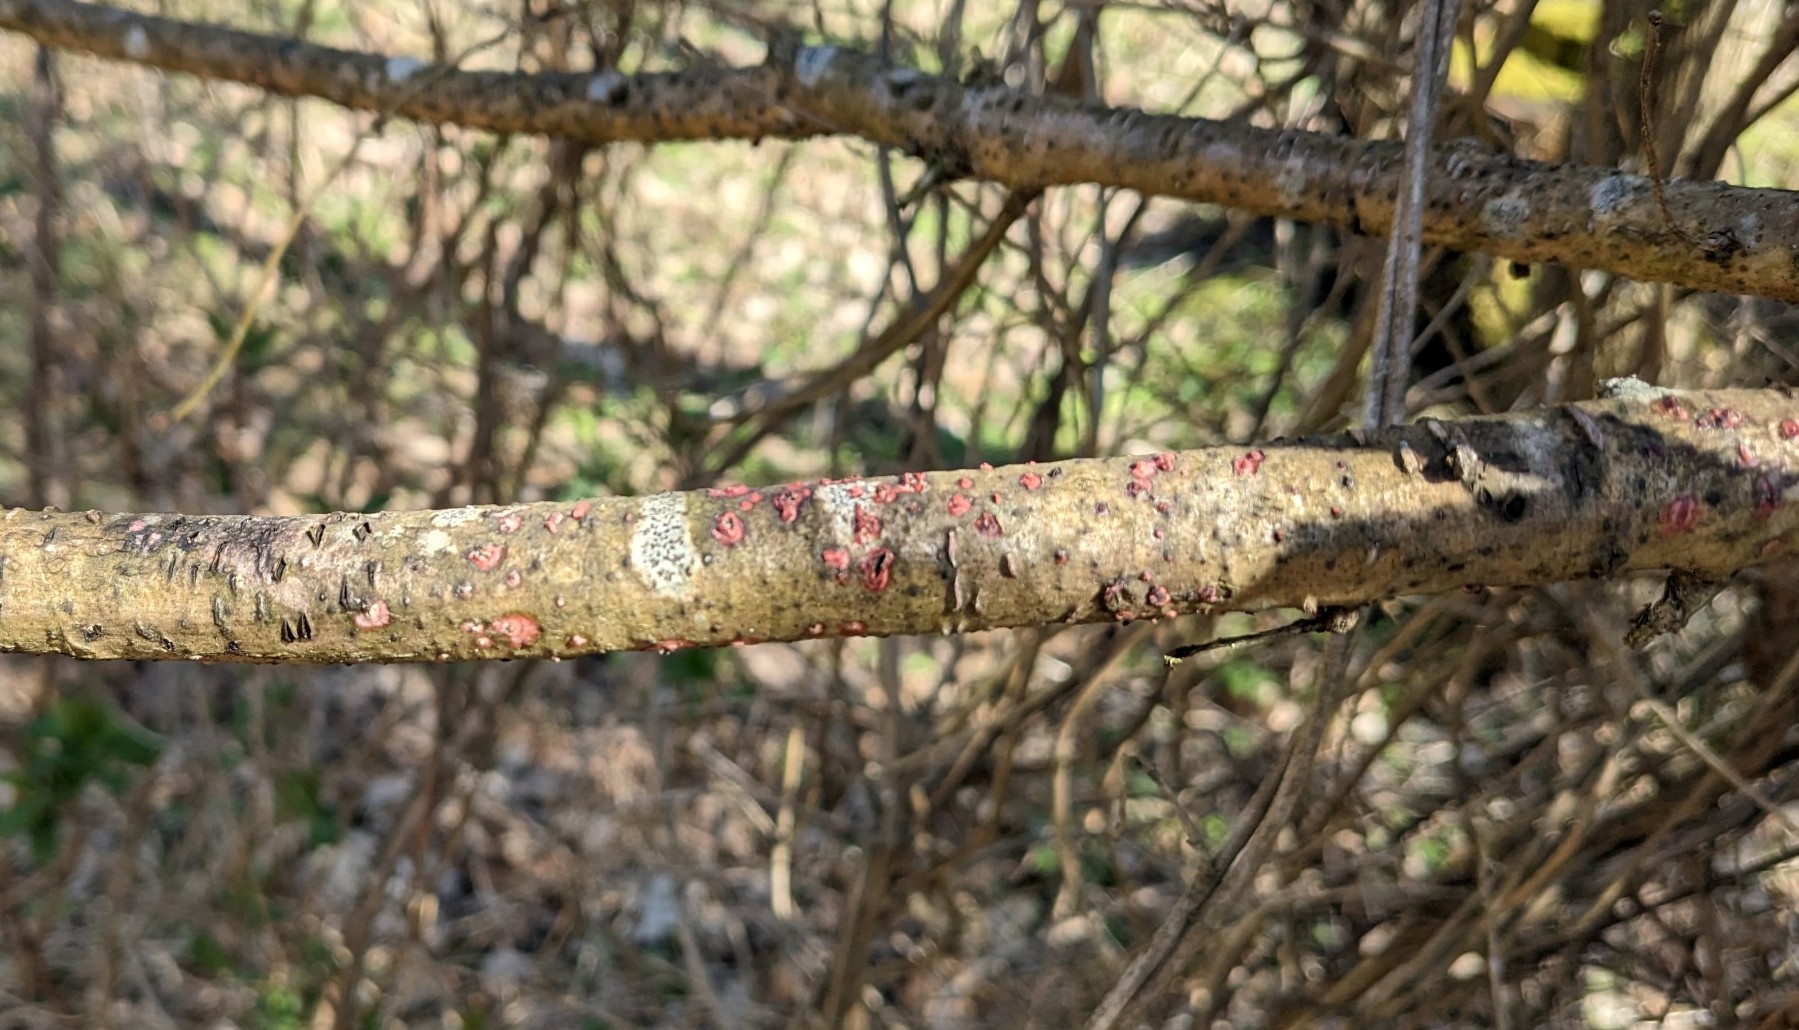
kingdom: Fungi
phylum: Basidiomycota
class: Agaricomycetes
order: Corticiales
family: Corticiaceae
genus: Marchandiomyces
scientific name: Marchandiomyces aurantioroseus
